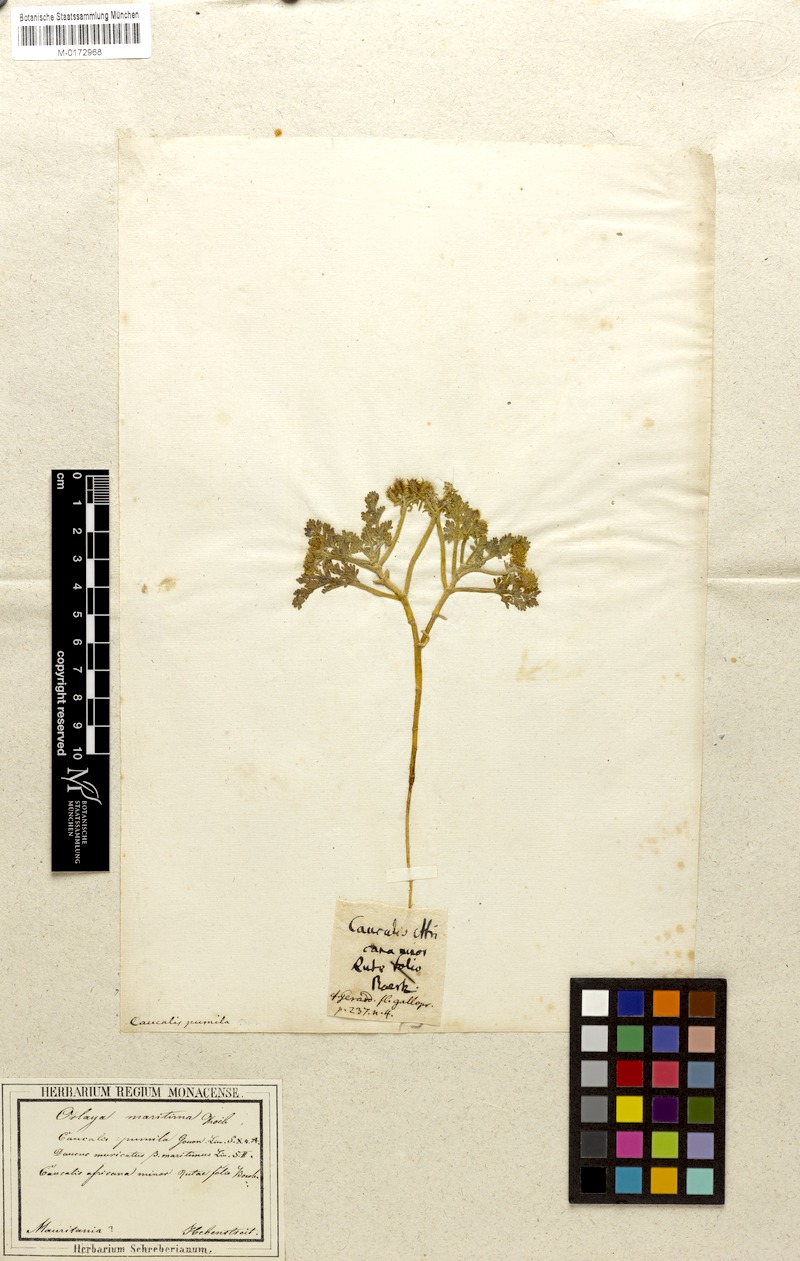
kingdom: Plantae
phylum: Tracheophyta
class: Magnoliopsida
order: Apiales
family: Apiaceae
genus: Daucus
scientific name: Daucus pumilus
